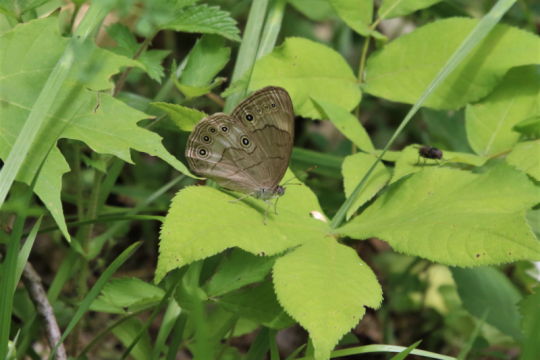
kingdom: Animalia
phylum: Arthropoda
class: Insecta
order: Lepidoptera
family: Nymphalidae
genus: Lethe
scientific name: Lethe eurydice
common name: Appalachian Eyed Brown
